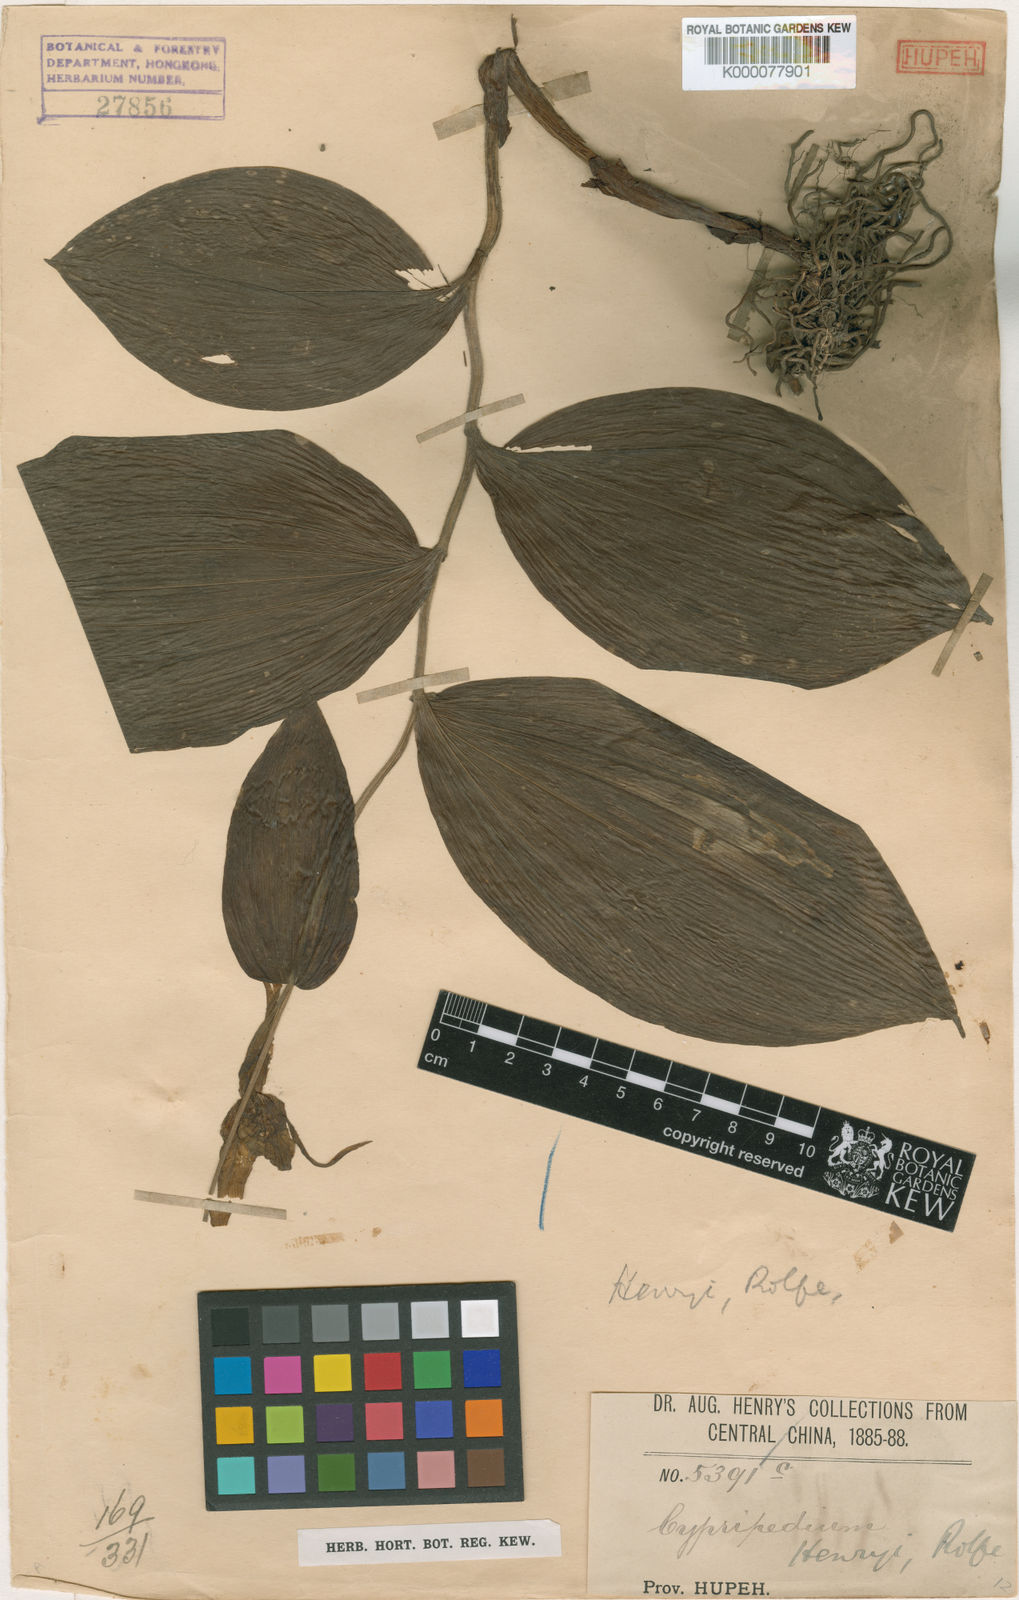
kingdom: Plantae
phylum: Tracheophyta
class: Liliopsida
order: Asparagales
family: Orchidaceae
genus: Cypripedium
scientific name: Cypripedium henryi
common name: Henry's cypripedium
